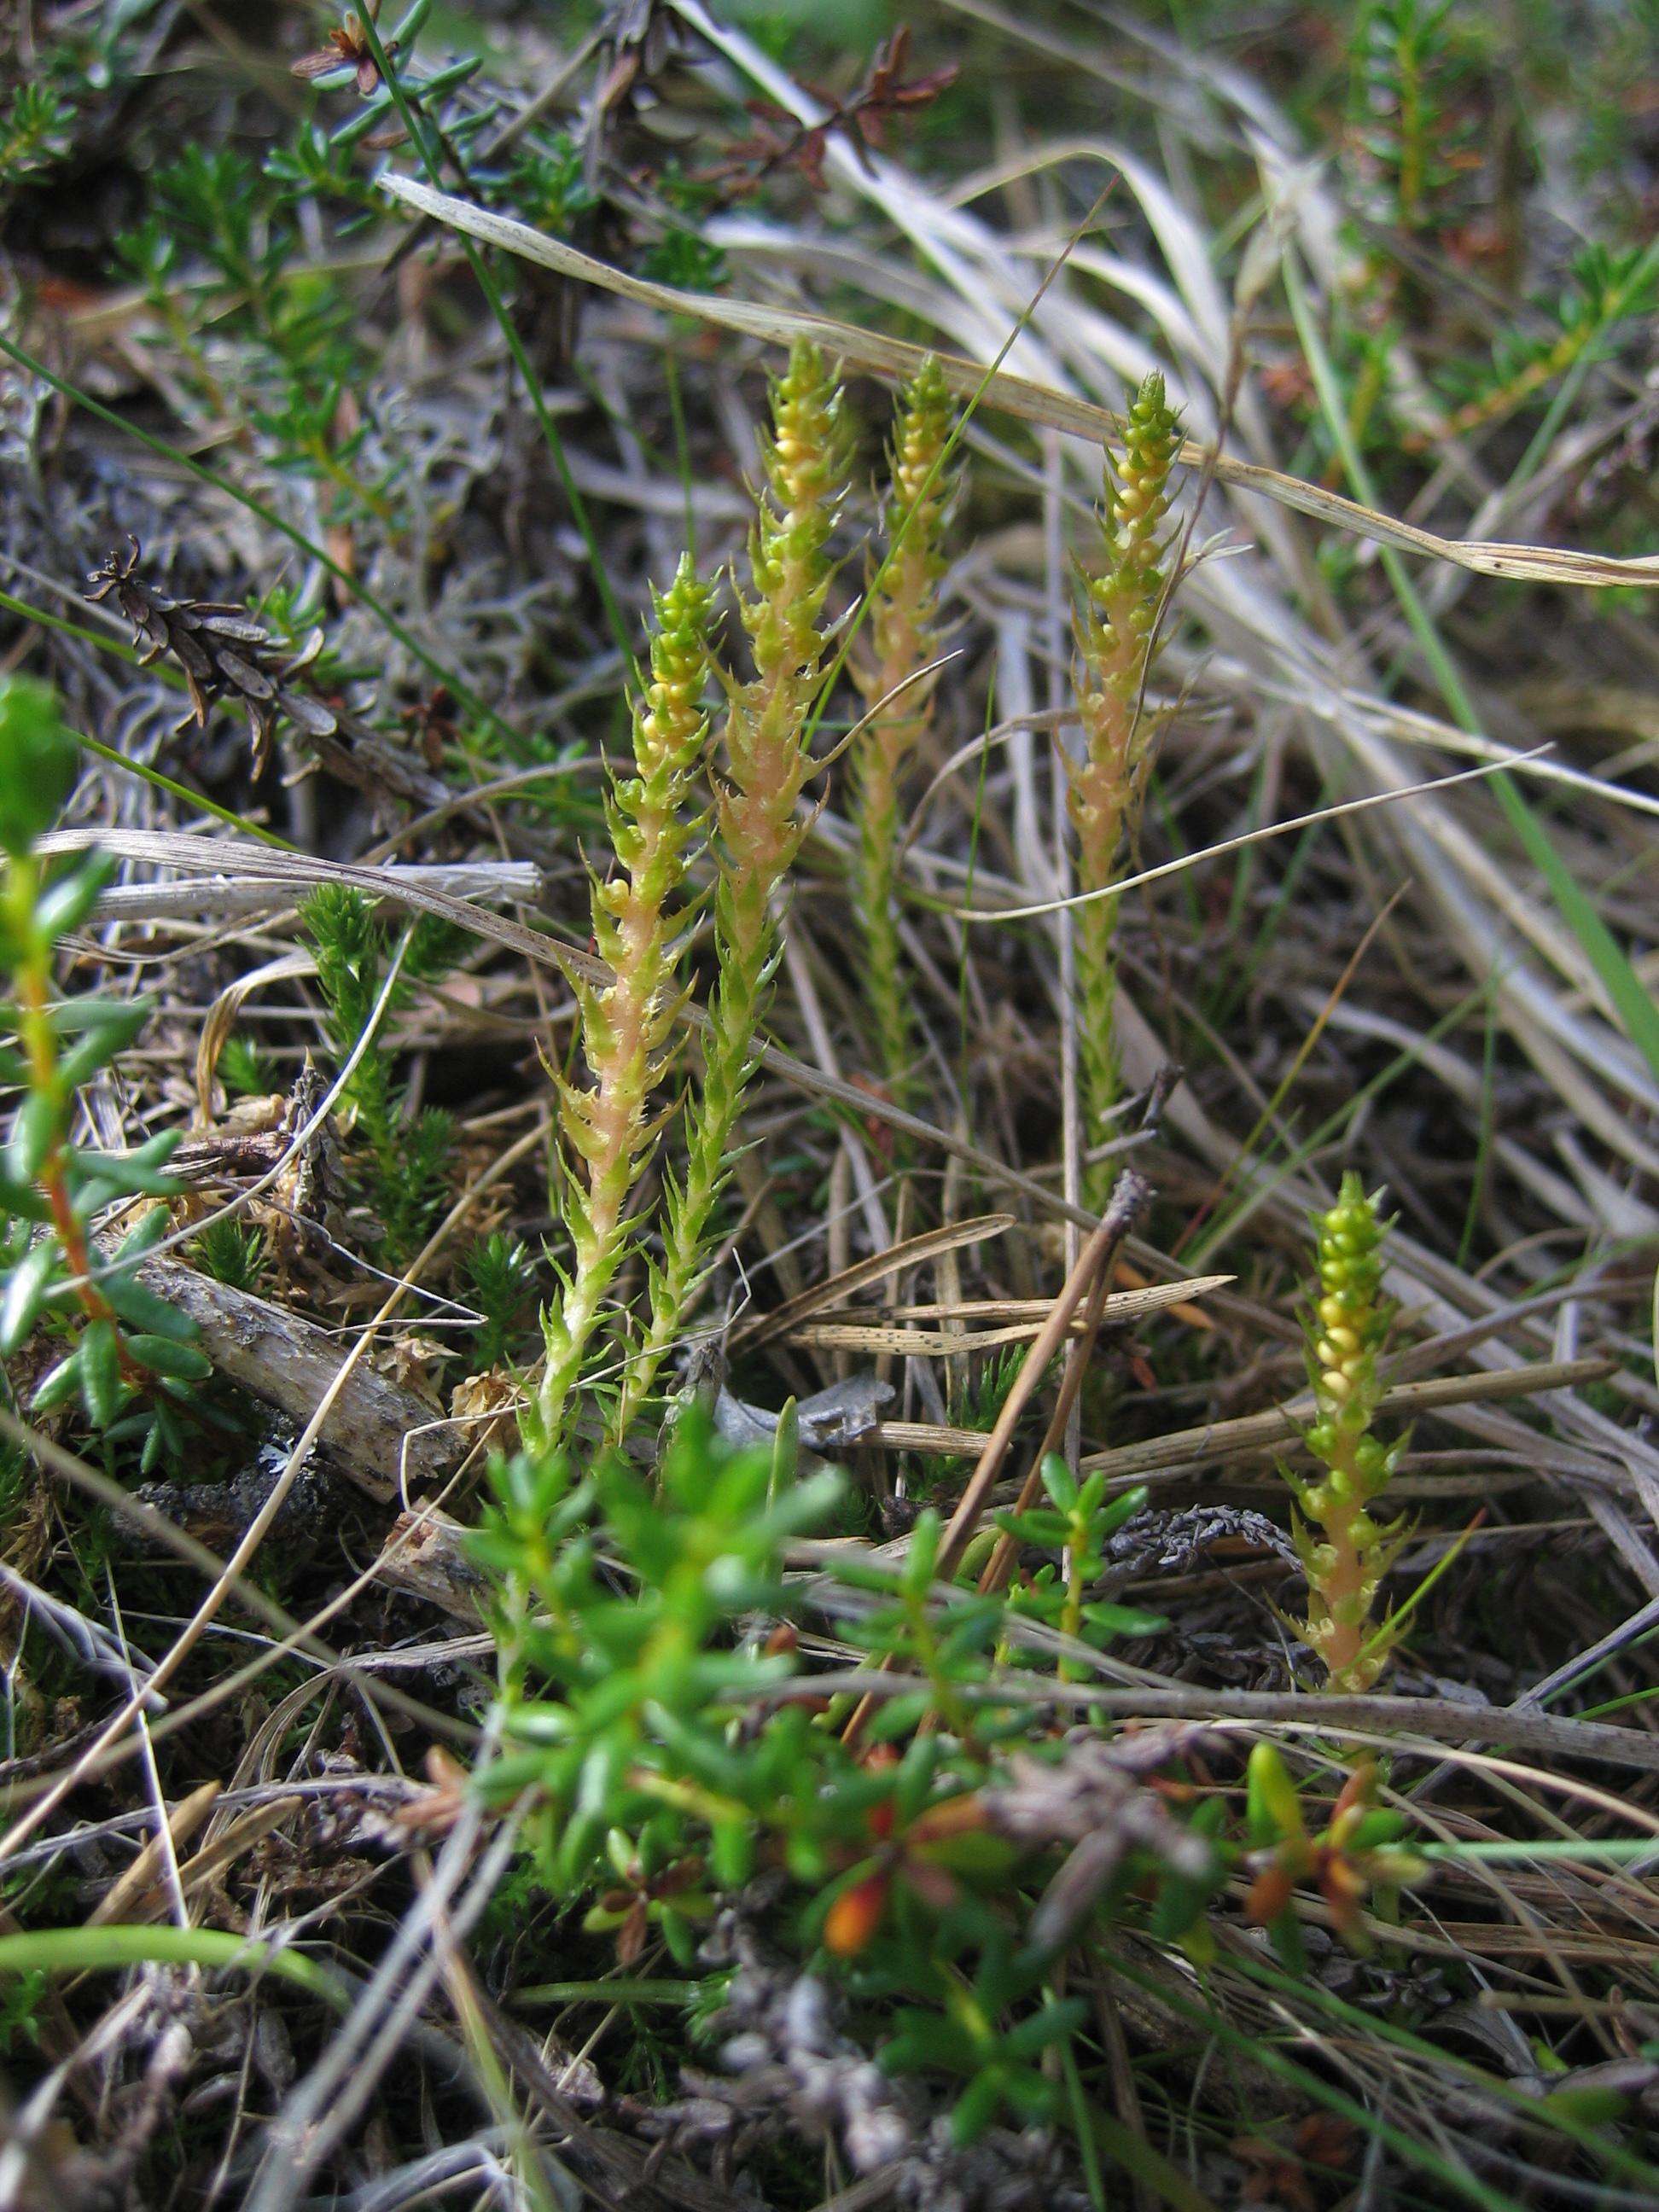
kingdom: Plantae
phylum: Tracheophyta
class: Lycopodiopsida
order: Selaginellales
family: Selaginellaceae
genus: Selaginella
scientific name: Selaginella selaginoides
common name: Prickly mountain-moss
